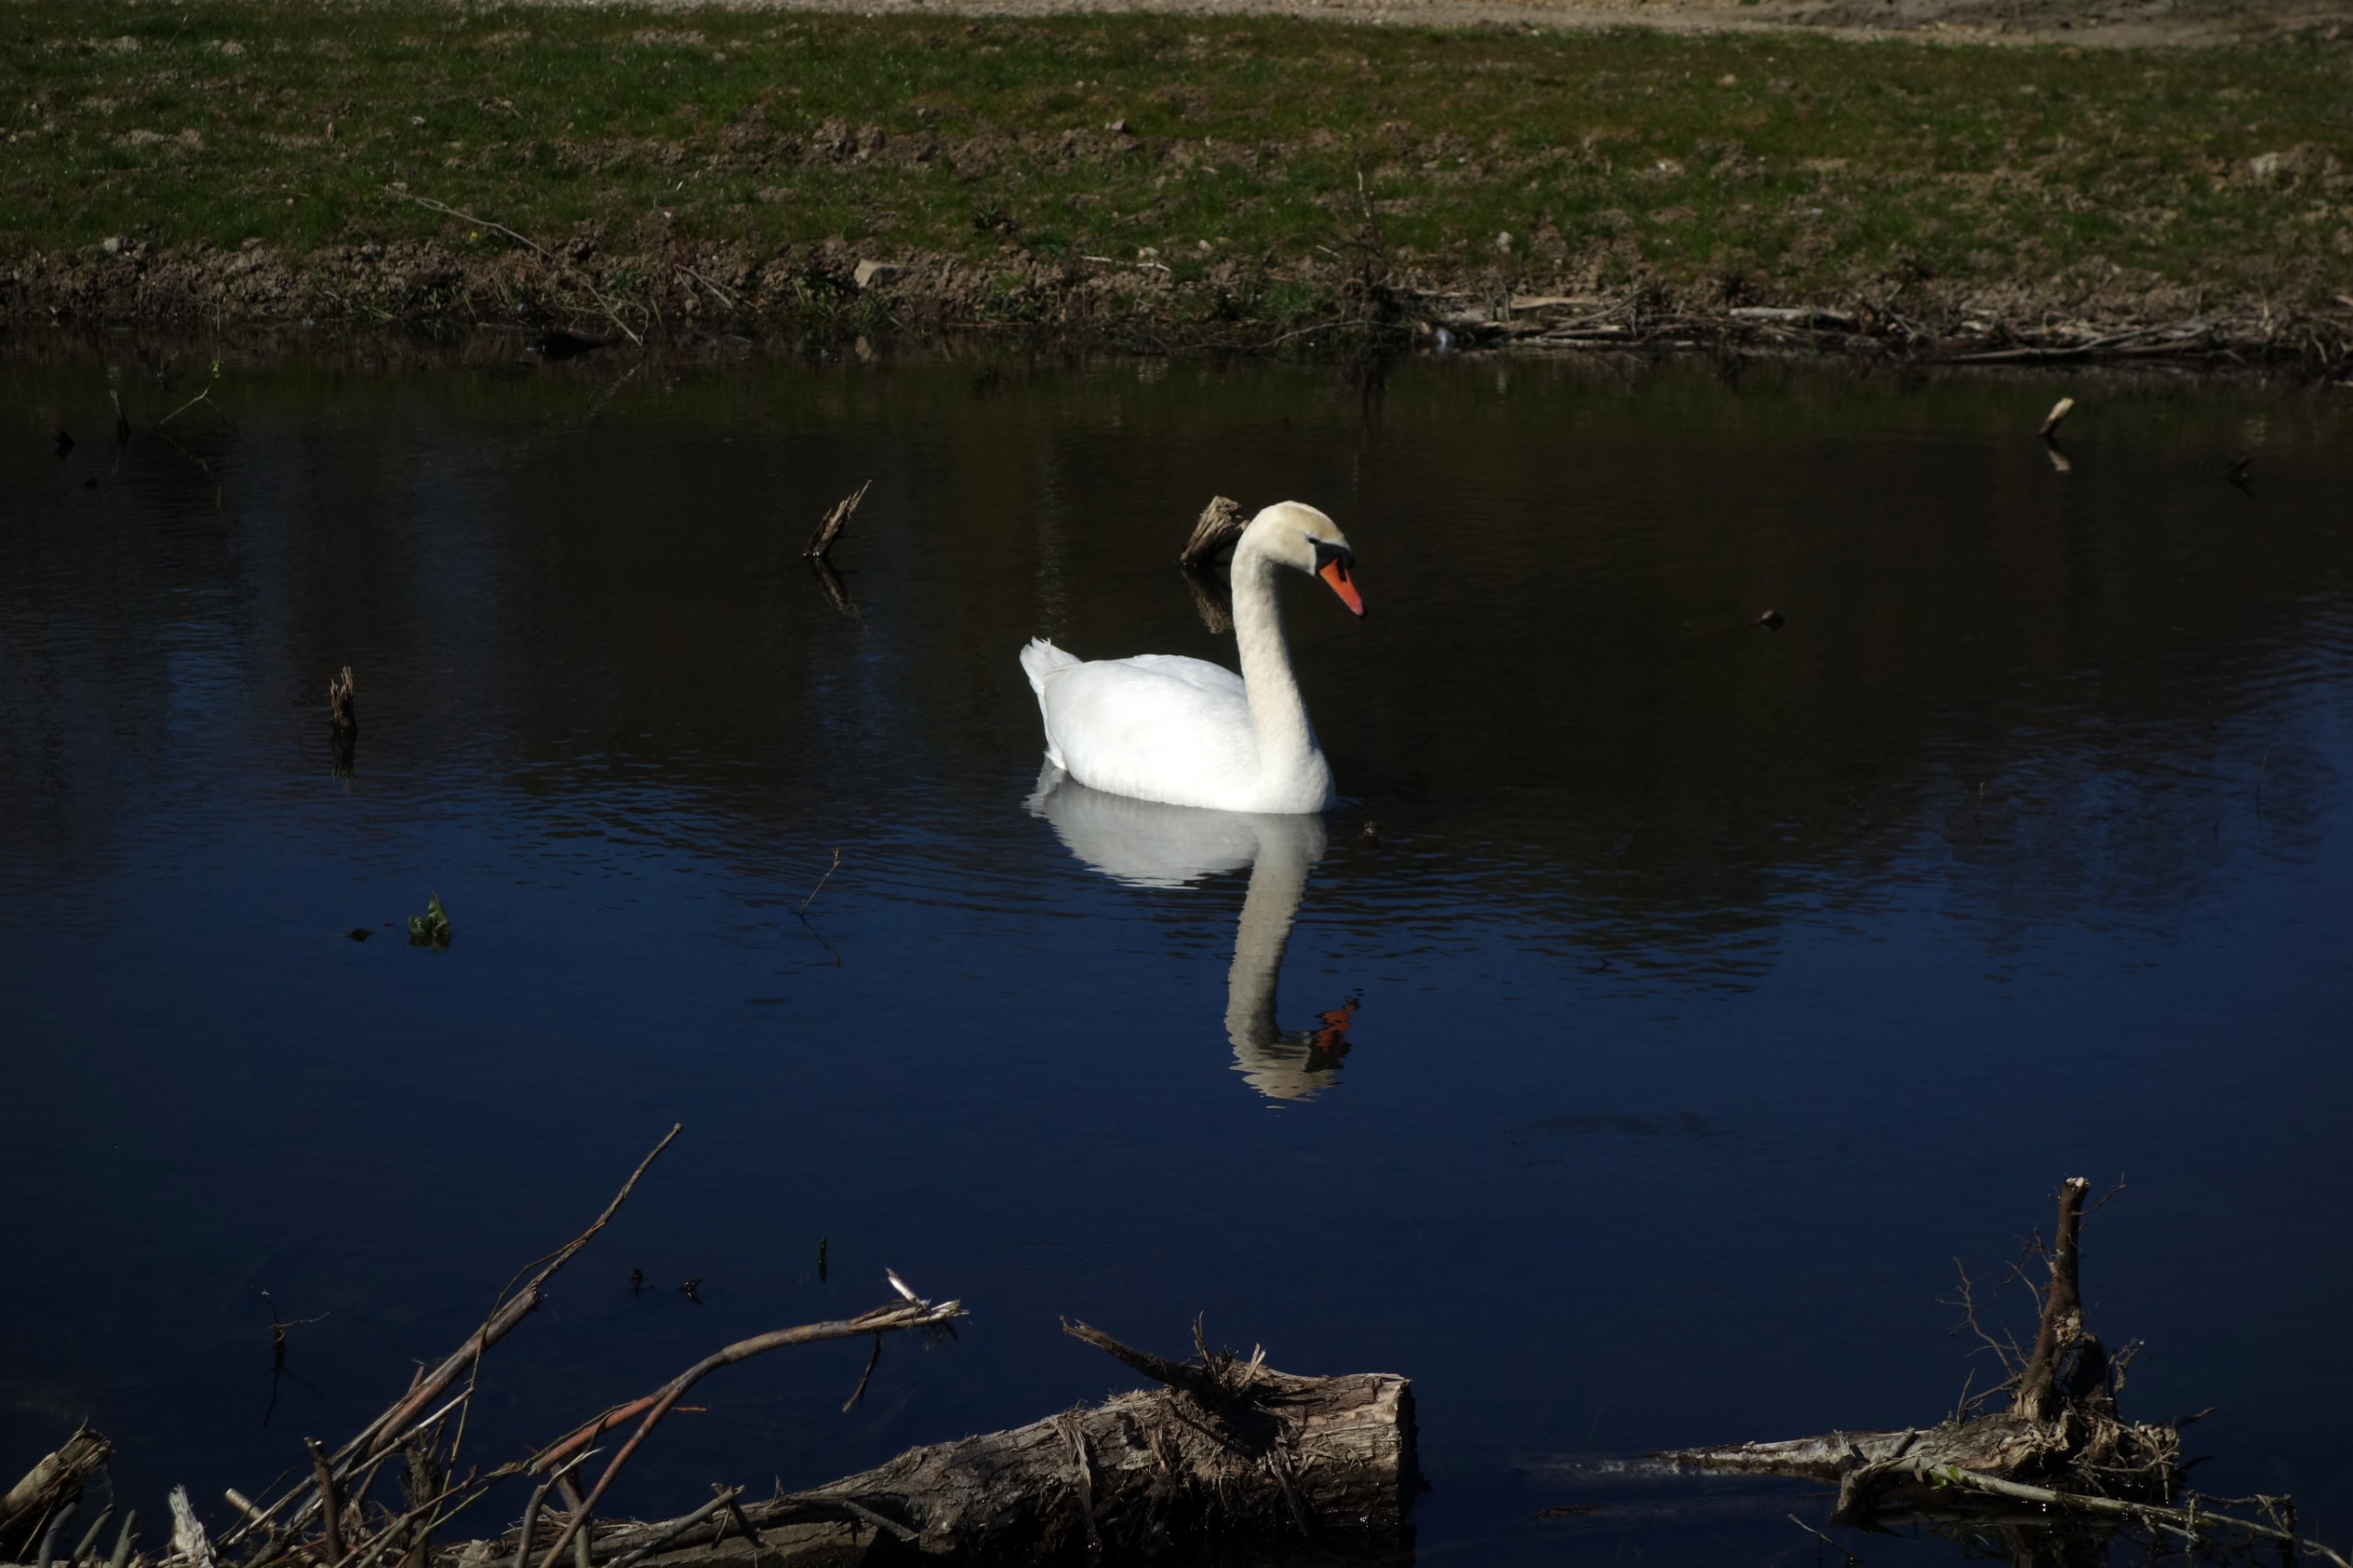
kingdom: Animalia
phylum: Chordata
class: Aves
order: Anseriformes
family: Anatidae
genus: Cygnus
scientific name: Cygnus olor
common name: Knopsvane
